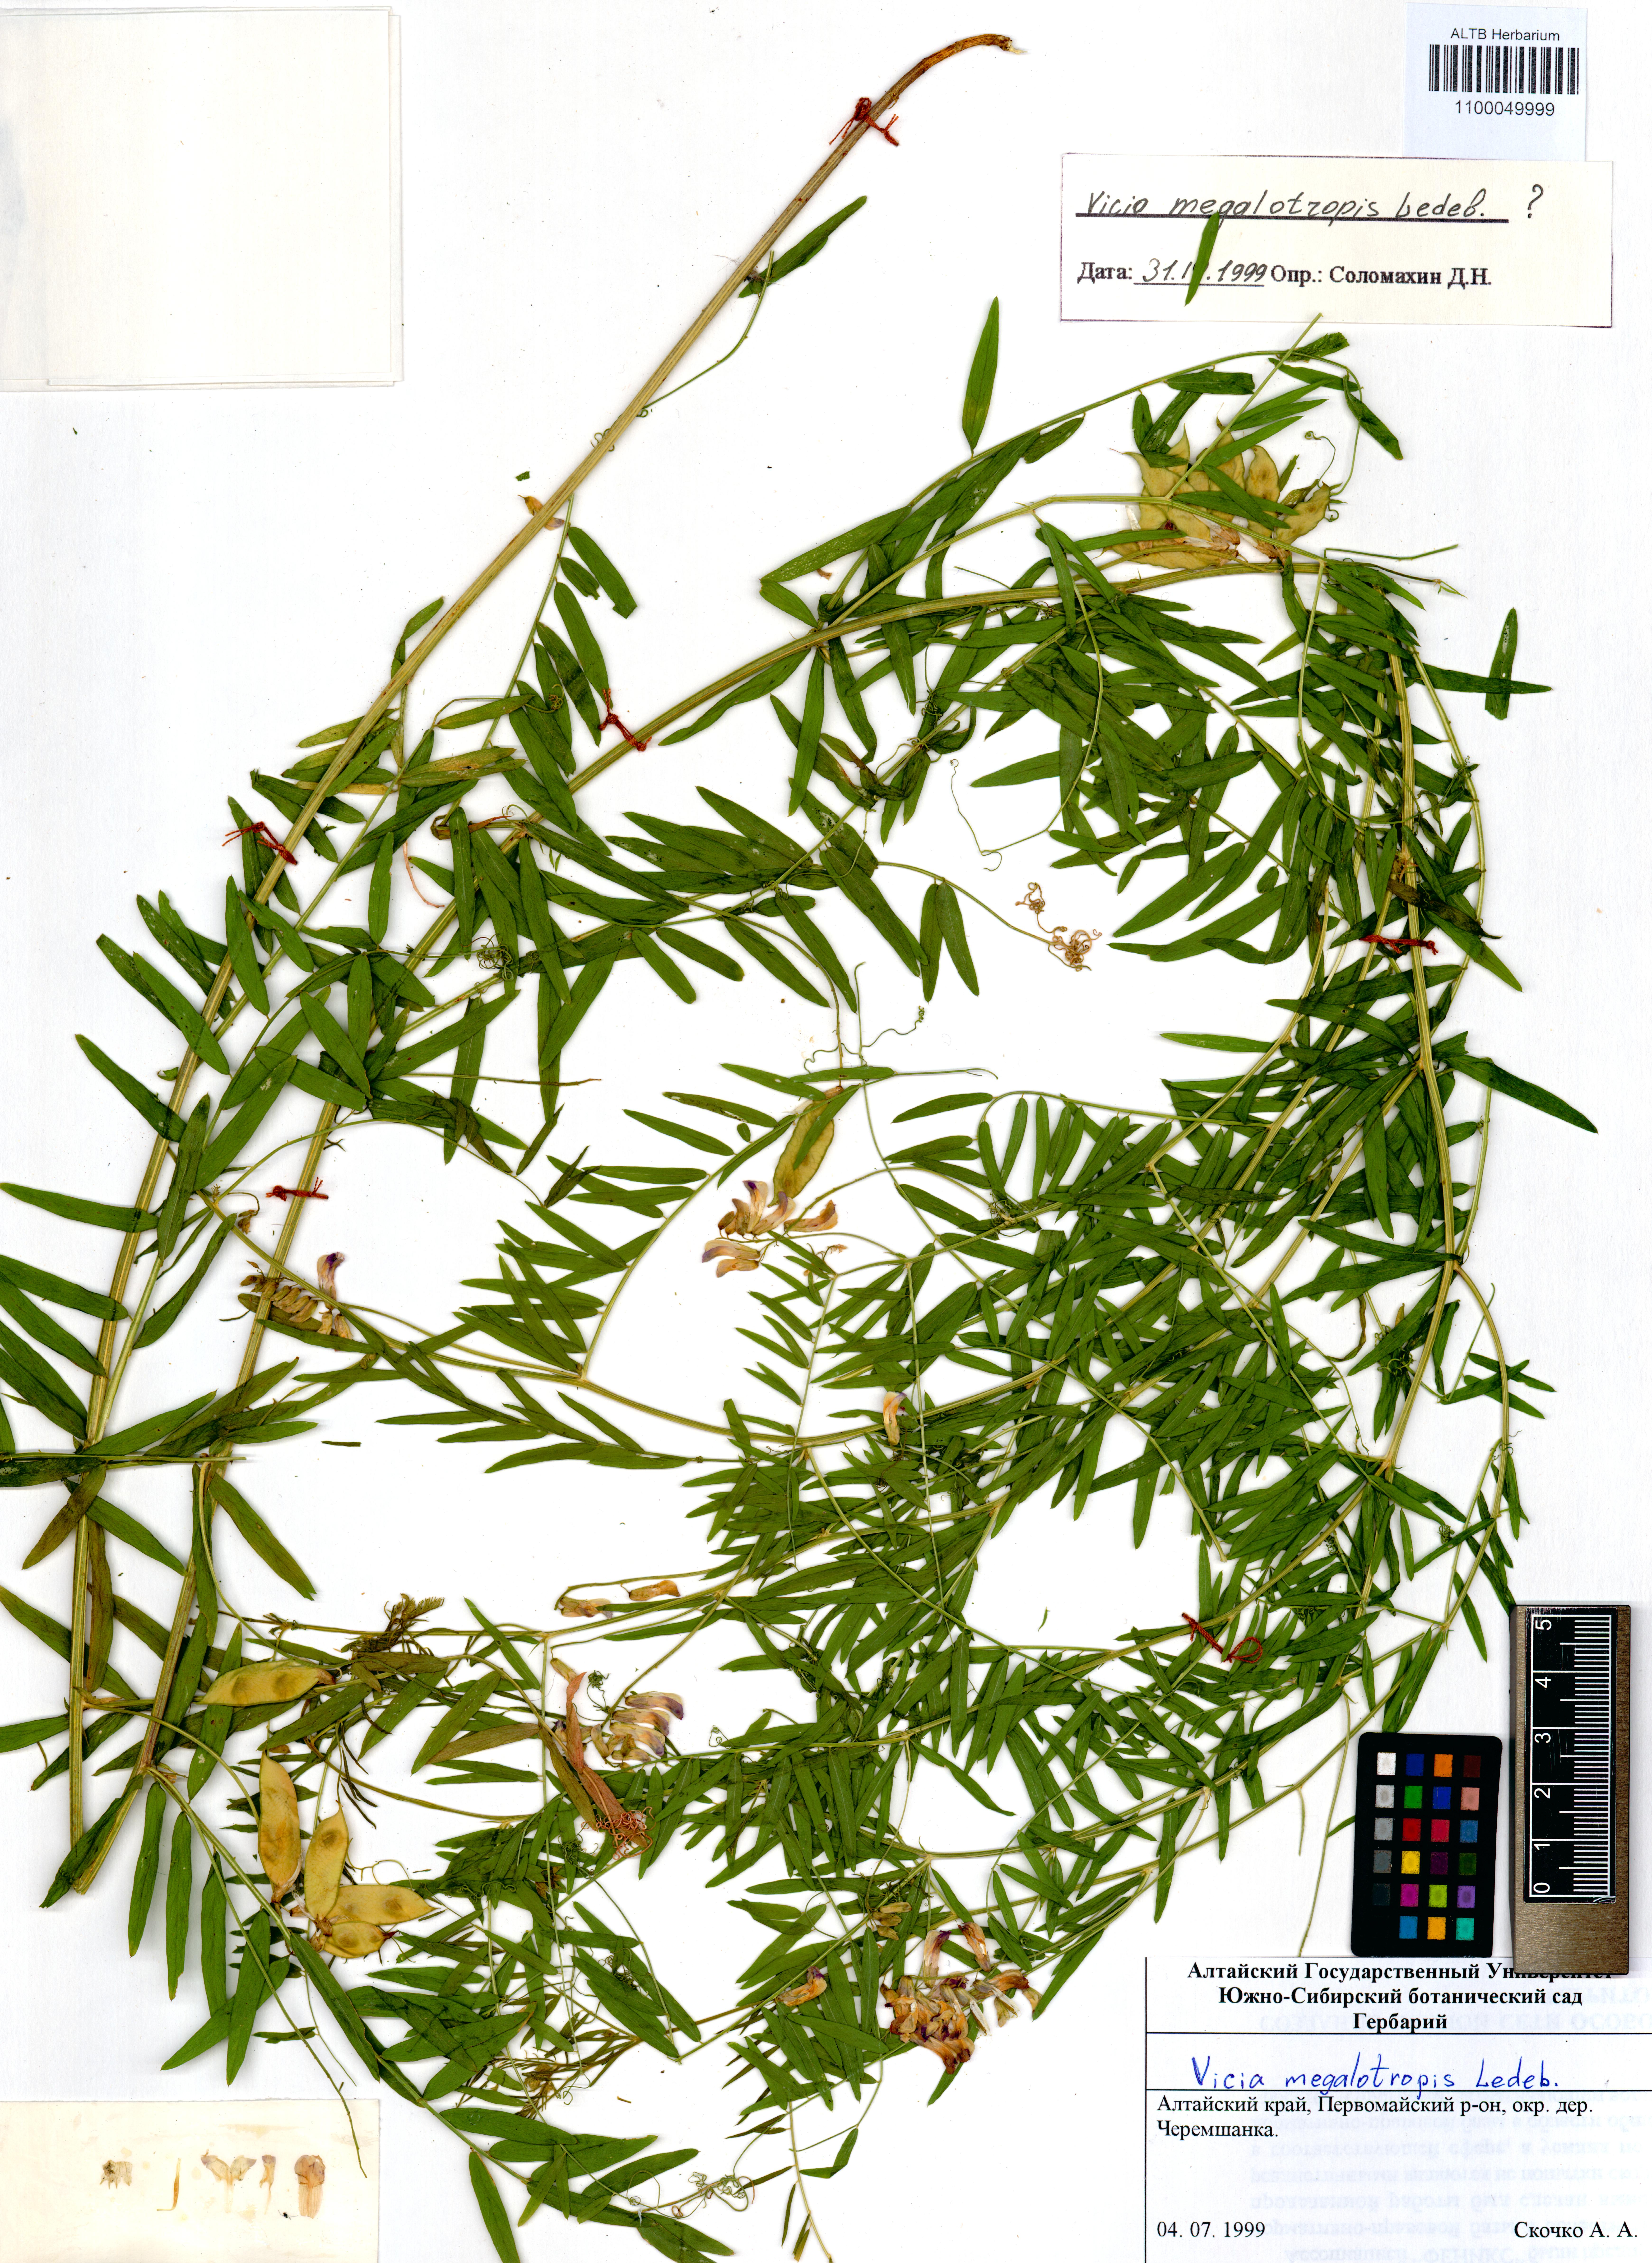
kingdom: Plantae
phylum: Tracheophyta
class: Magnoliopsida
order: Fabales
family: Fabaceae
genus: Vicia
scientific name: Vicia megalotropis
